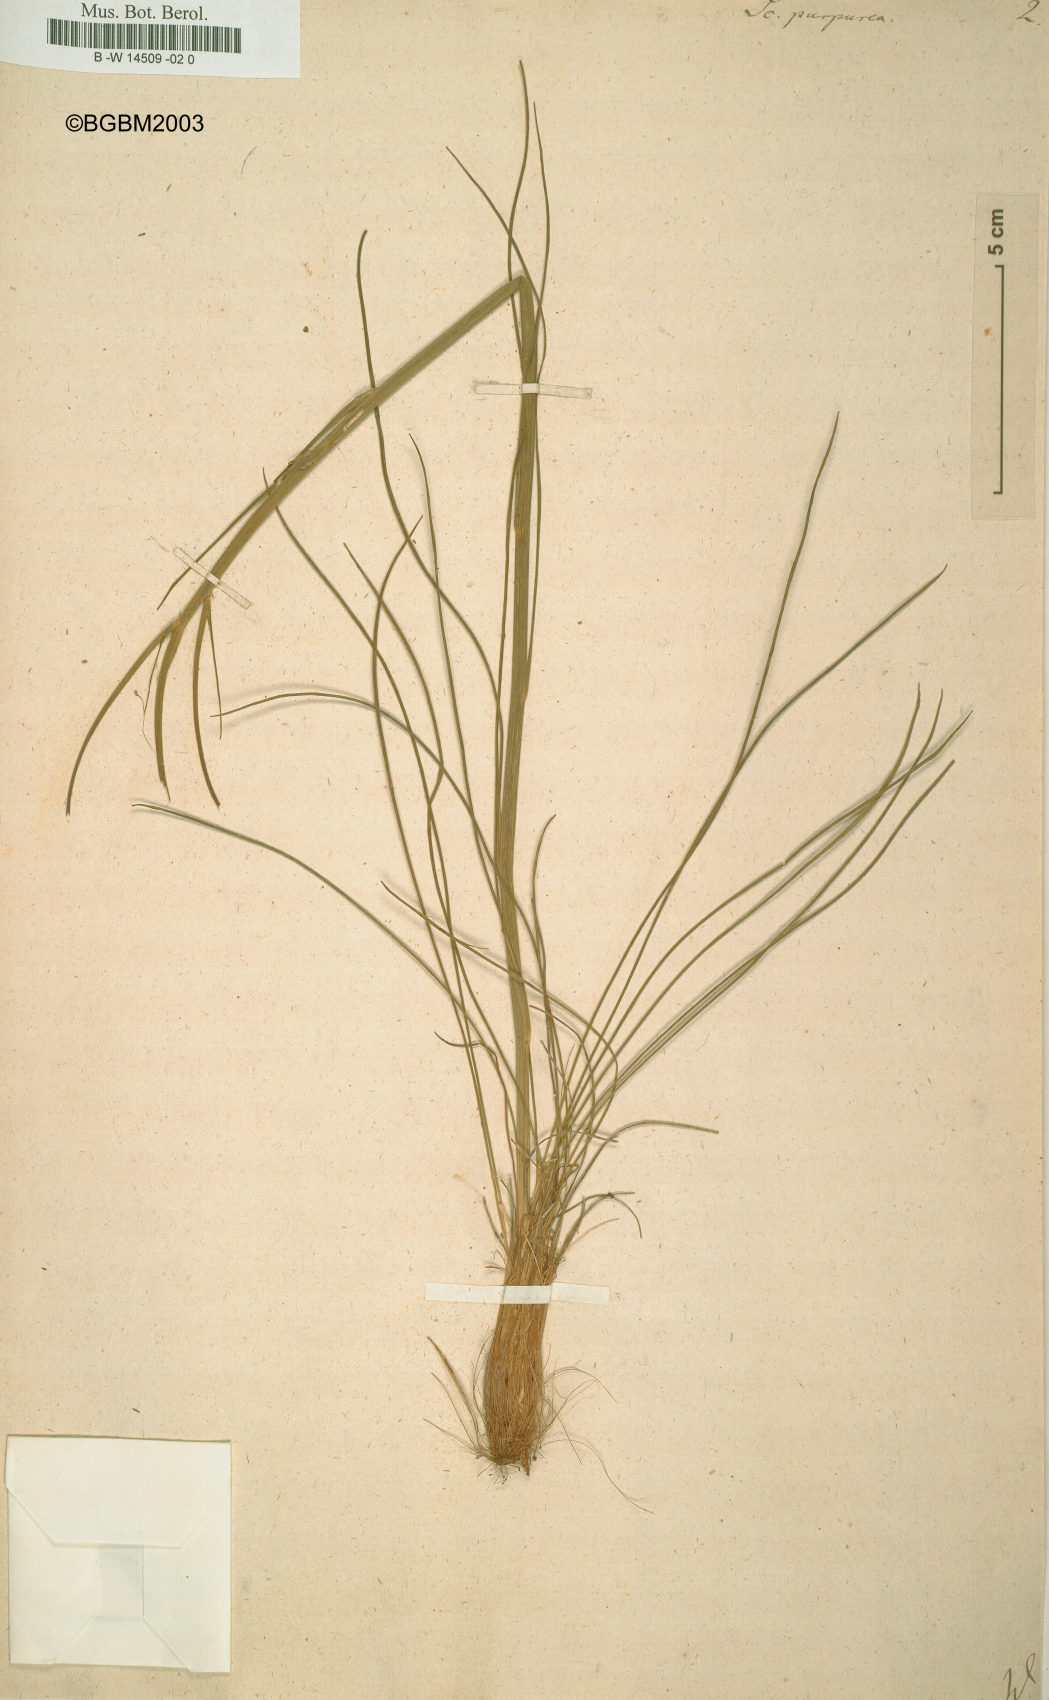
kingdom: Plantae
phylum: Tracheophyta
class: Magnoliopsida
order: Asterales
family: Asteraceae
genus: Scorzonera
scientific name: Scorzonera purpurea
